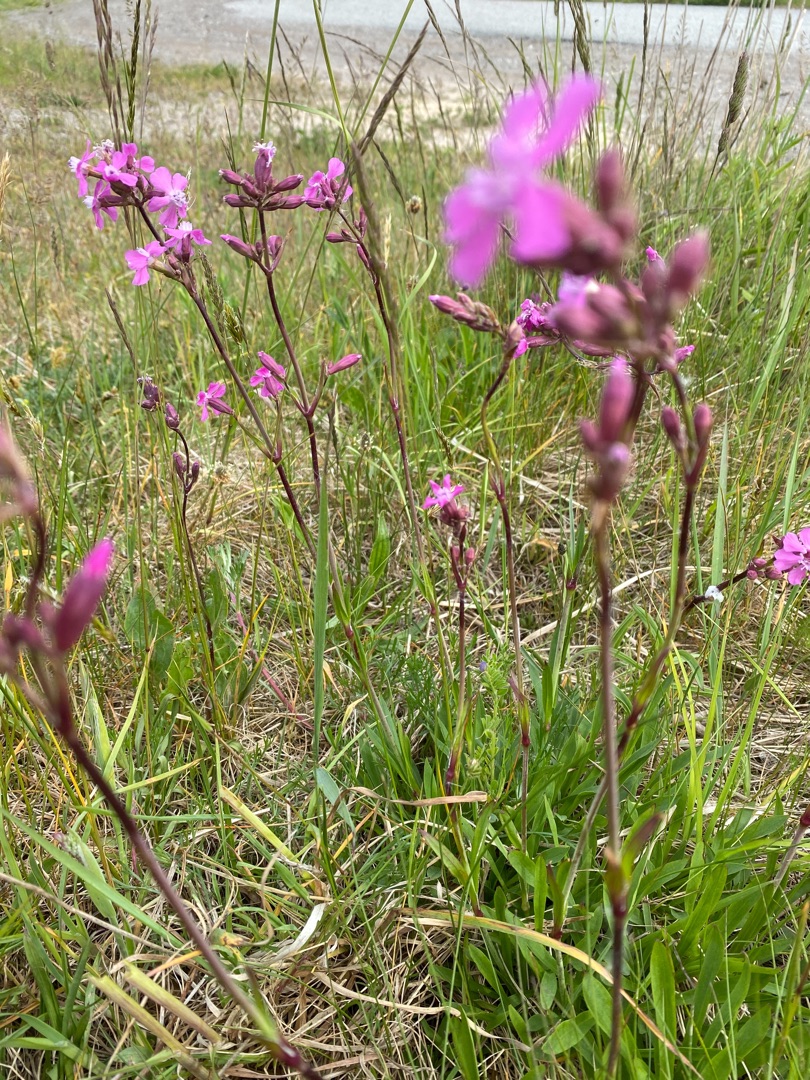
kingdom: Plantae
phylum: Tracheophyta
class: Magnoliopsida
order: Caryophyllales
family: Caryophyllaceae
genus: Viscaria
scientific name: Viscaria vulgaris
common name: Tjærenellike
